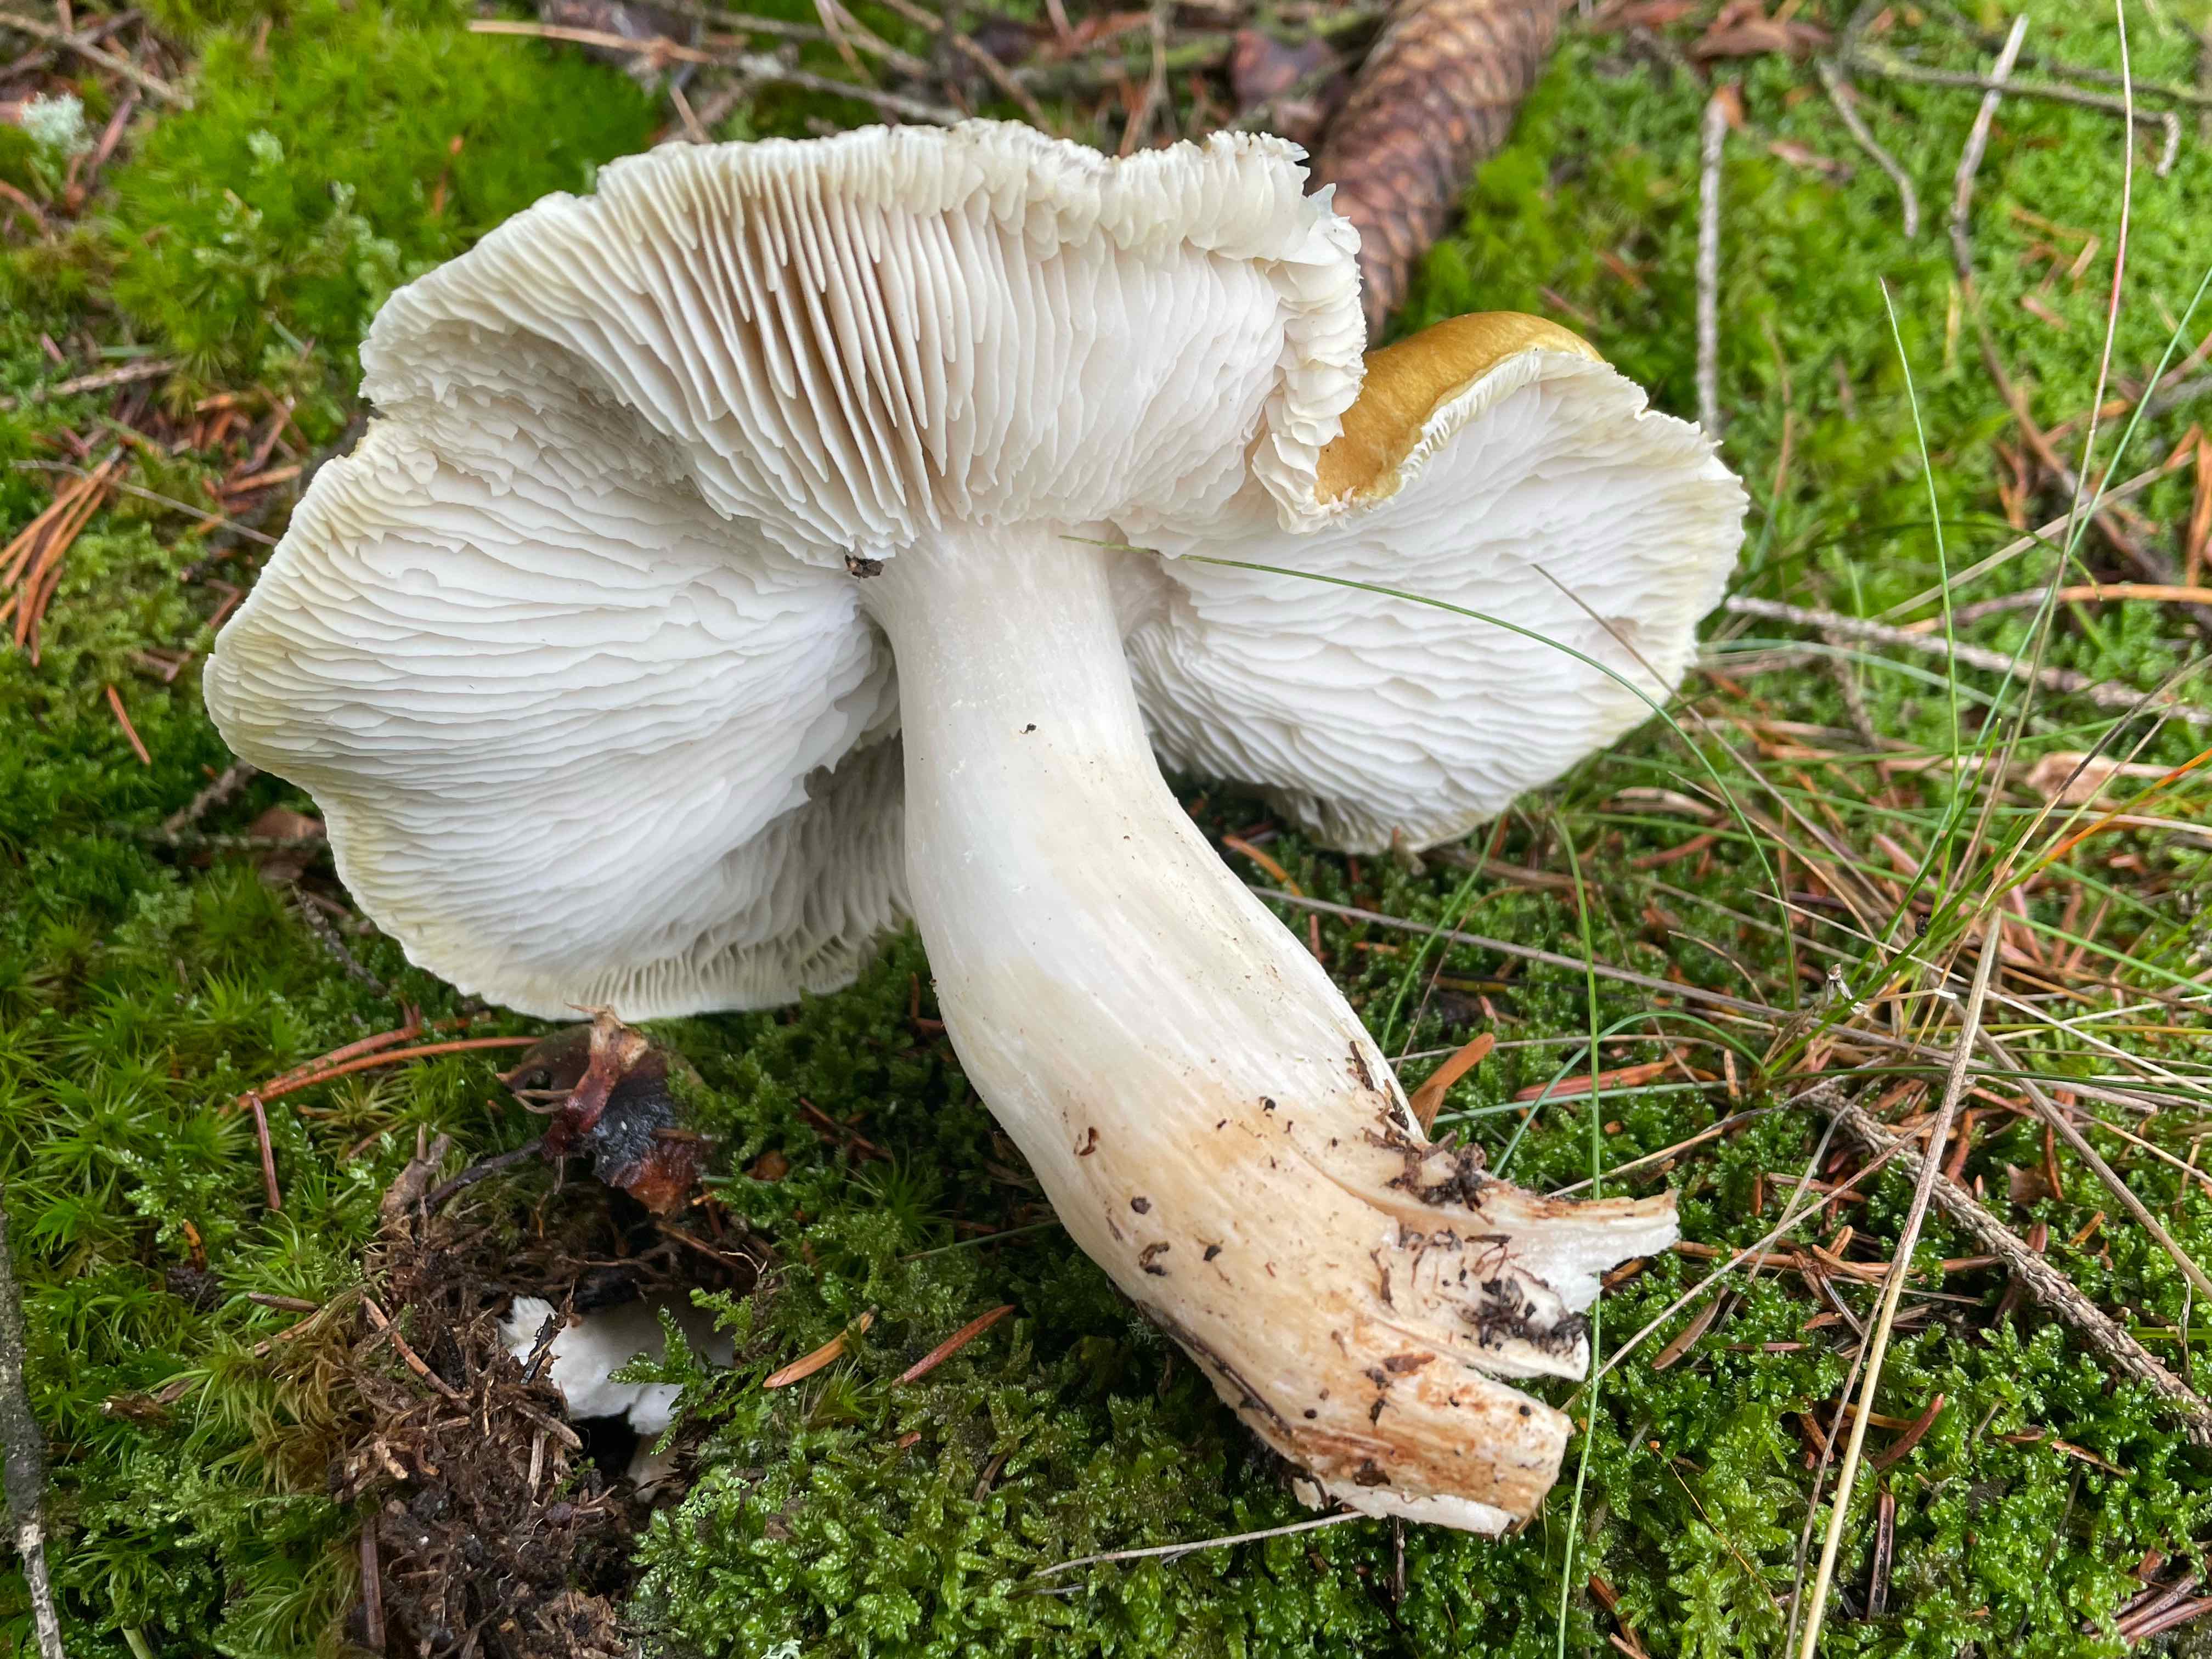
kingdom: Fungi
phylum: Basidiomycota
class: Agaricomycetes
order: Agaricales
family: Tricholomataceae
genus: Tricholoma
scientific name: Tricholoma arvernense
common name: kantet ridderhat
